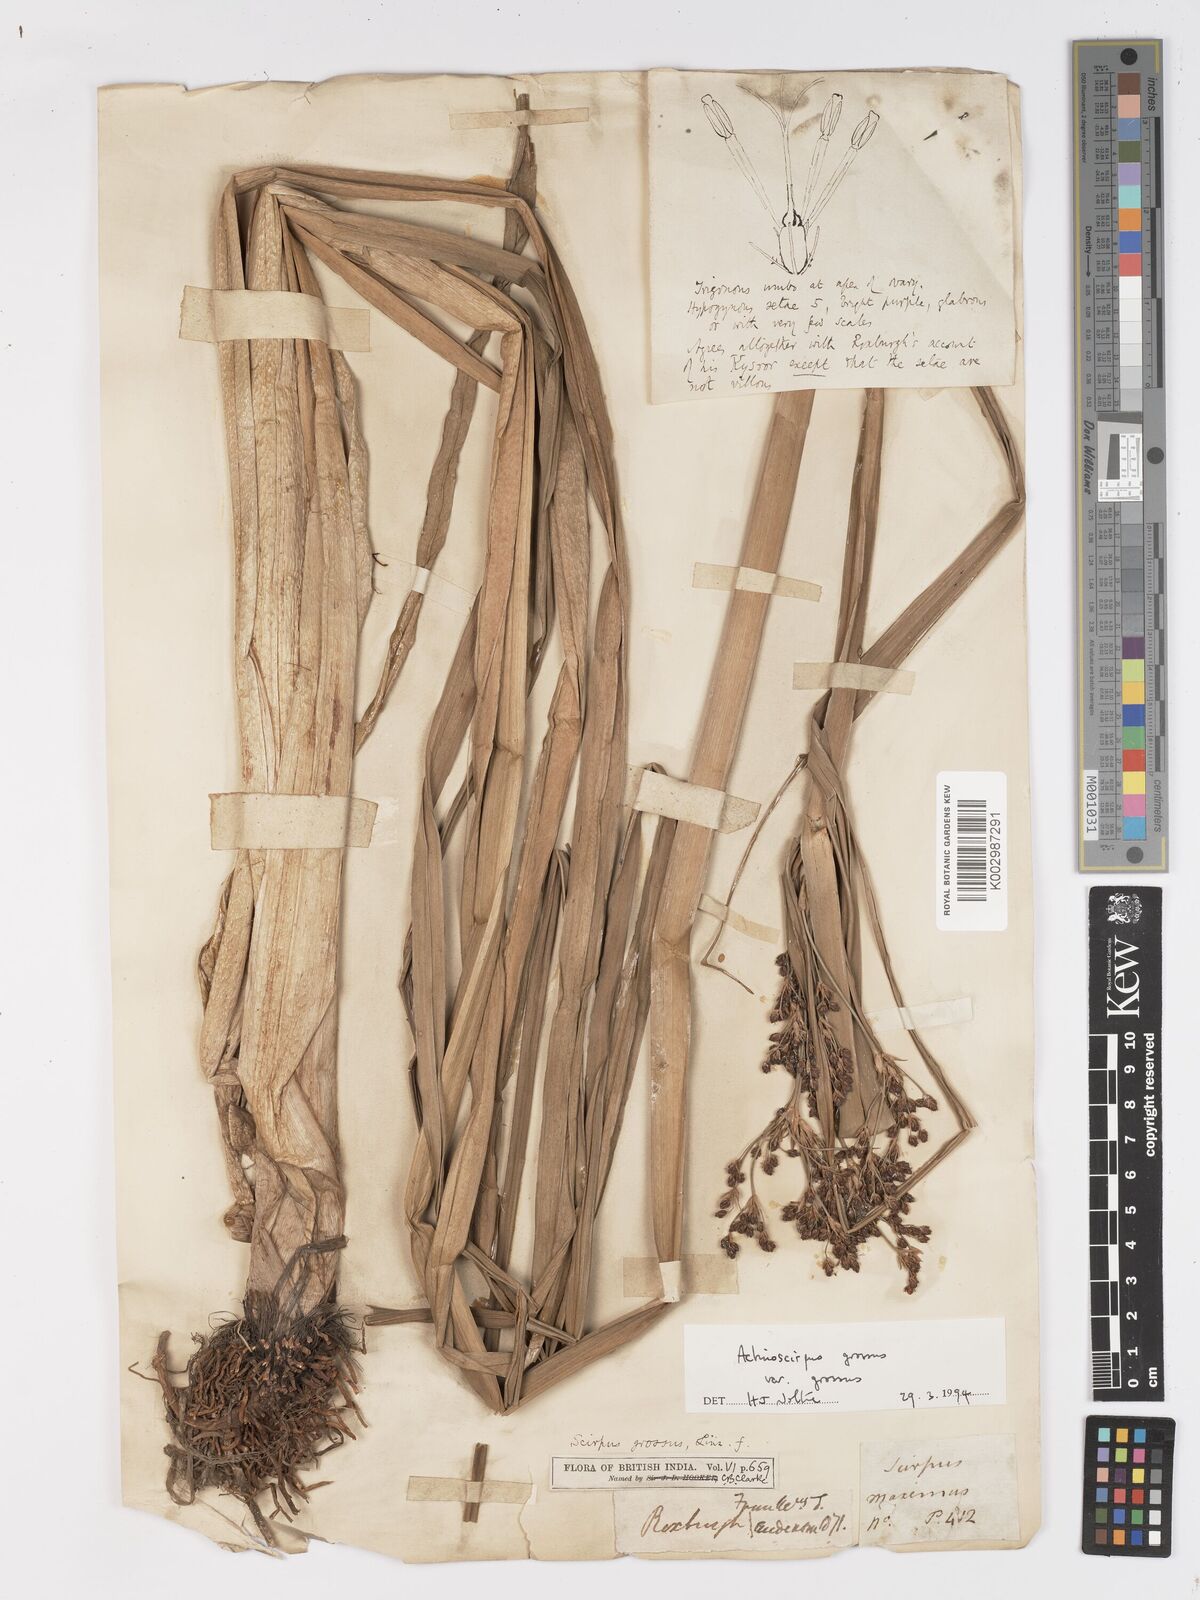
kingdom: Plantae
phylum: Tracheophyta
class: Liliopsida
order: Poales
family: Cyperaceae
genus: Actinoscirpus
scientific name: Actinoscirpus grossus
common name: Giant bur rush
